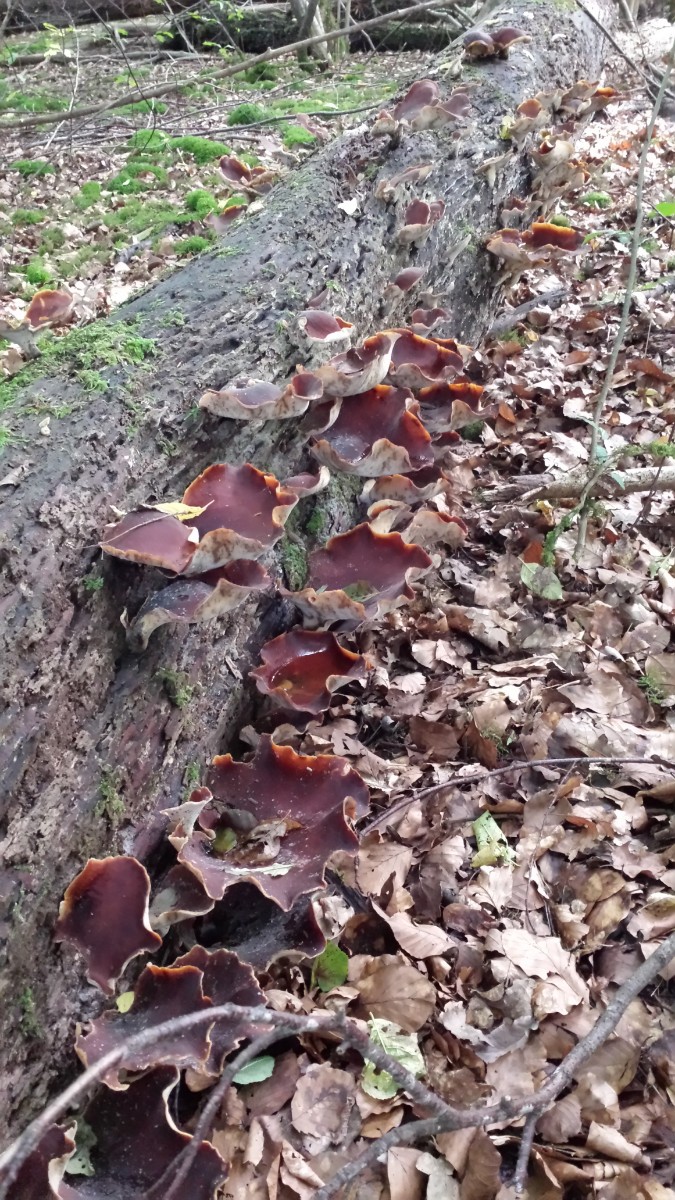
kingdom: Fungi
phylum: Basidiomycota
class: Agaricomycetes
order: Polyporales
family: Polyporaceae
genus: Picipes
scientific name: Picipes badius
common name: kastaniebrun stilkporesvamp
